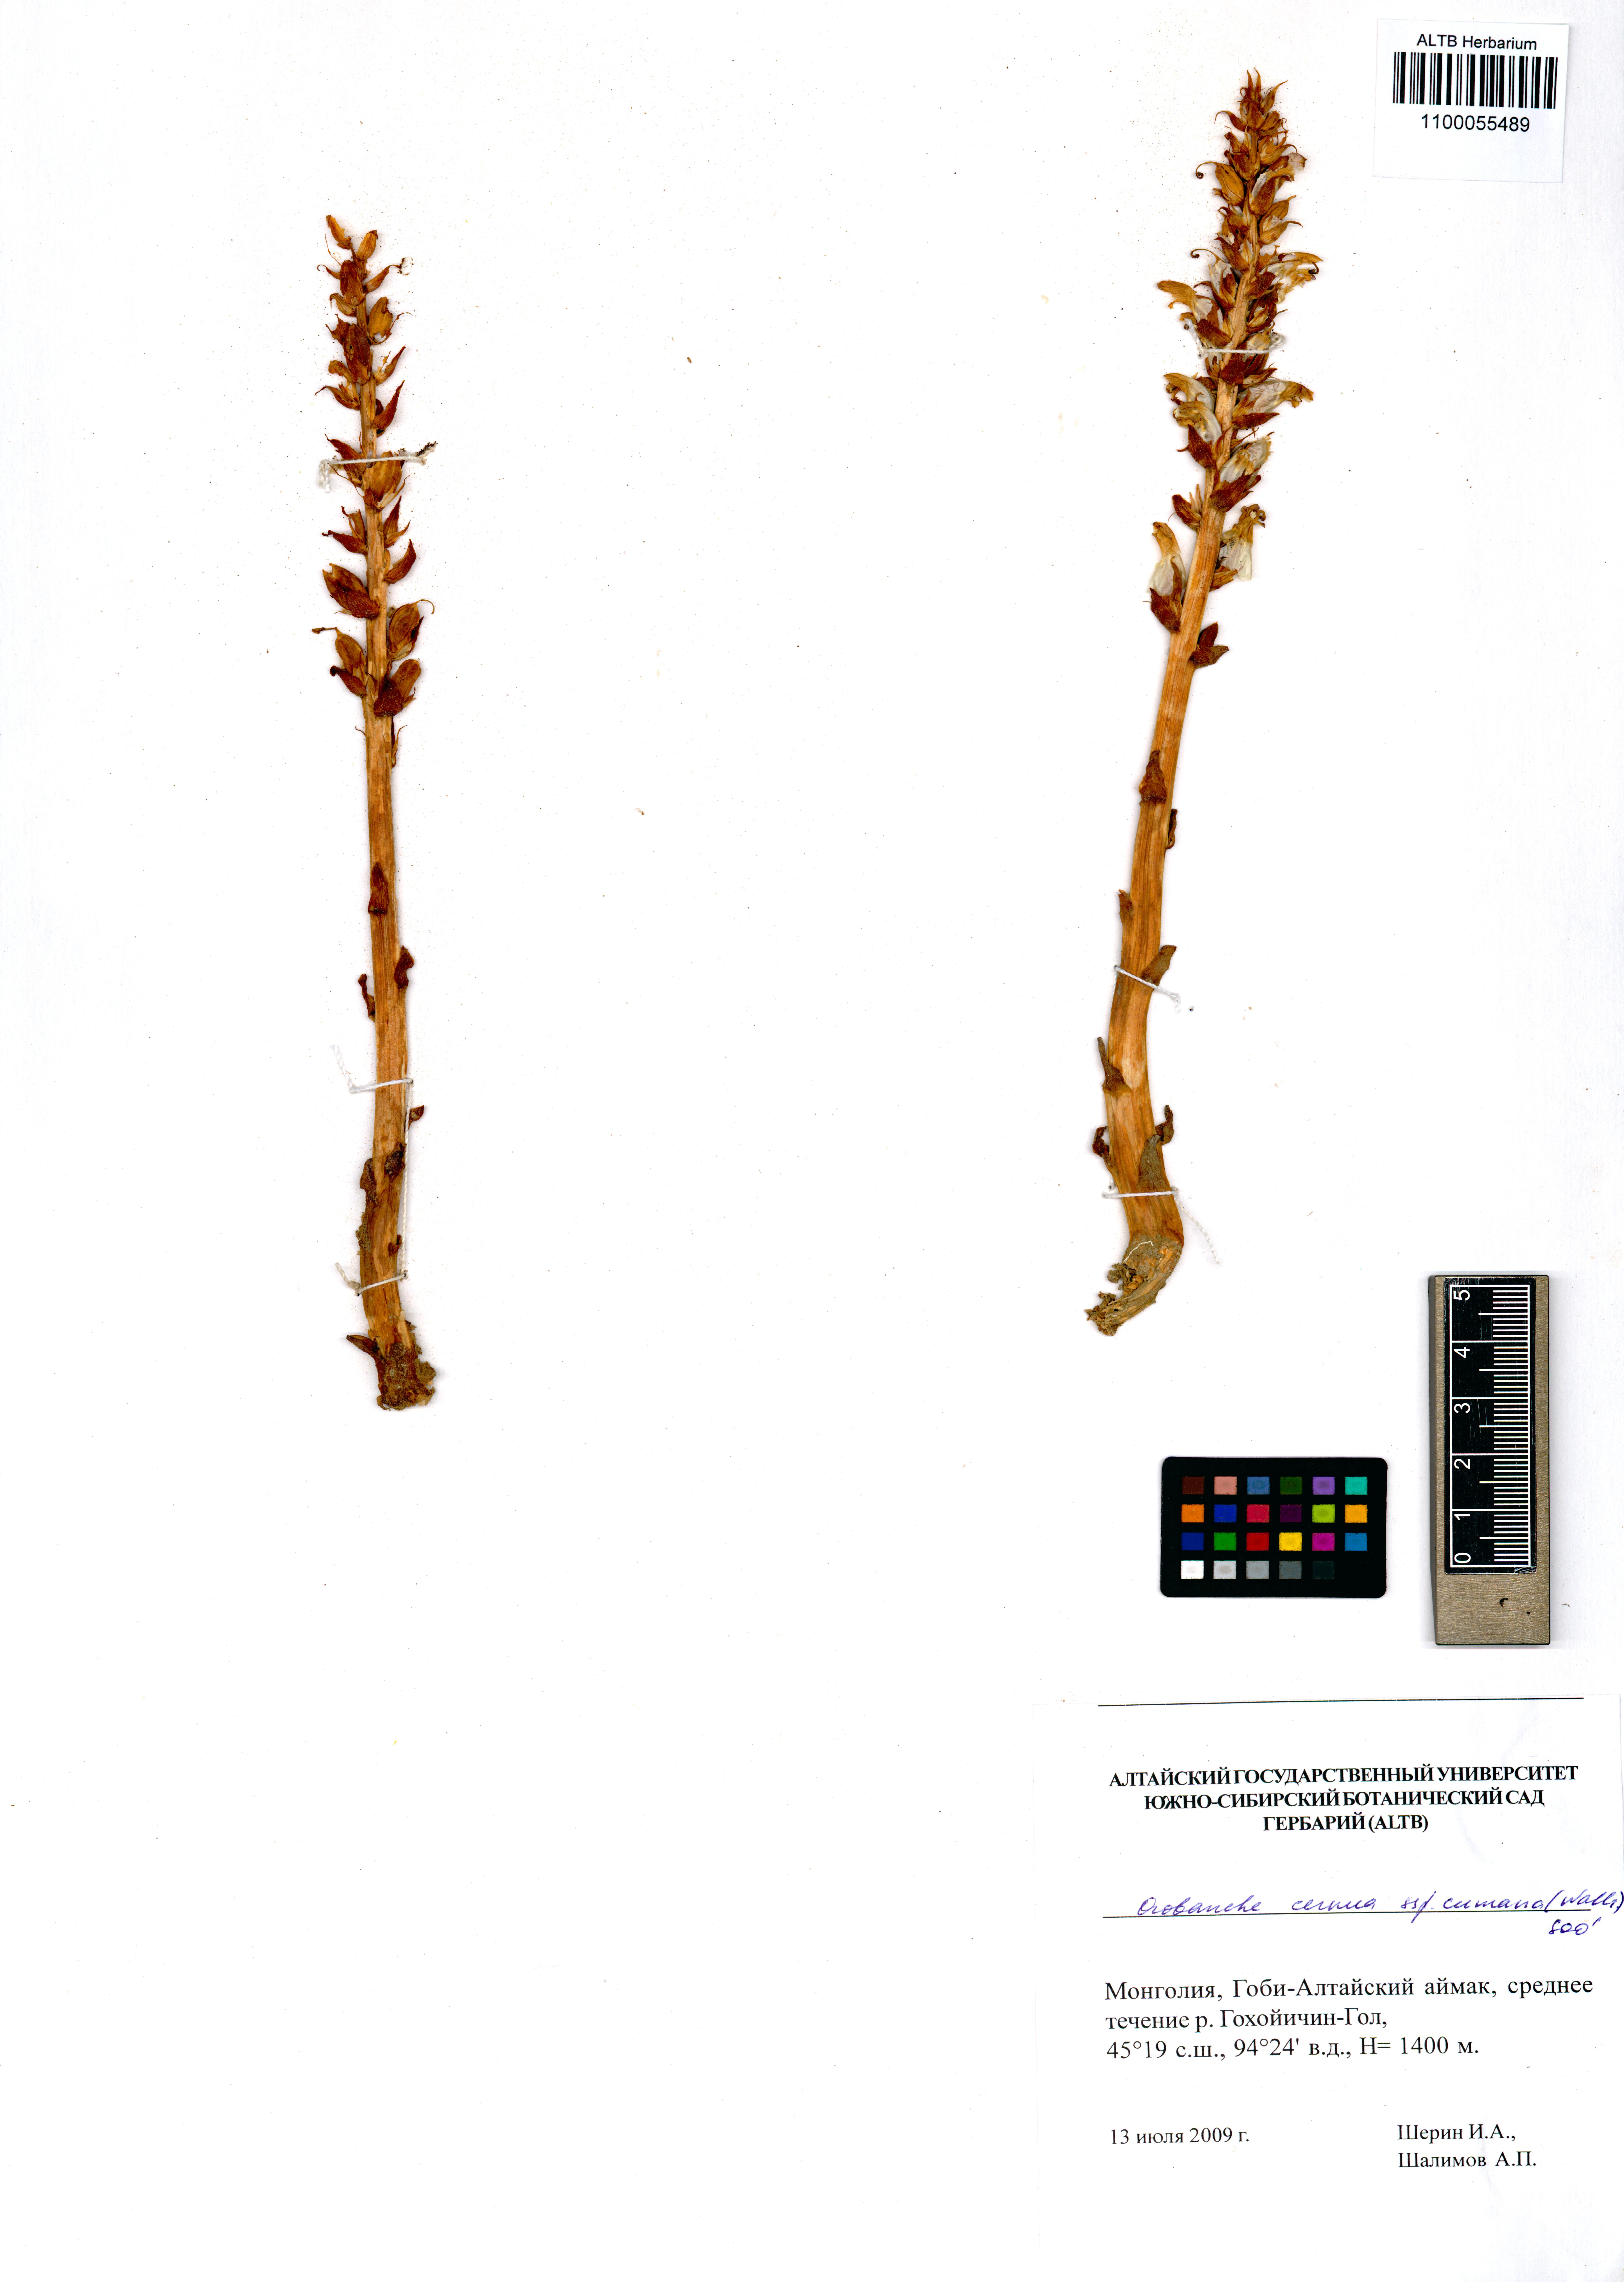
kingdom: Plantae
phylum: Tracheophyta
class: Magnoliopsida
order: Lamiales
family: Orobanchaceae
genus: Orobanche
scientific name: Orobanche cumana
